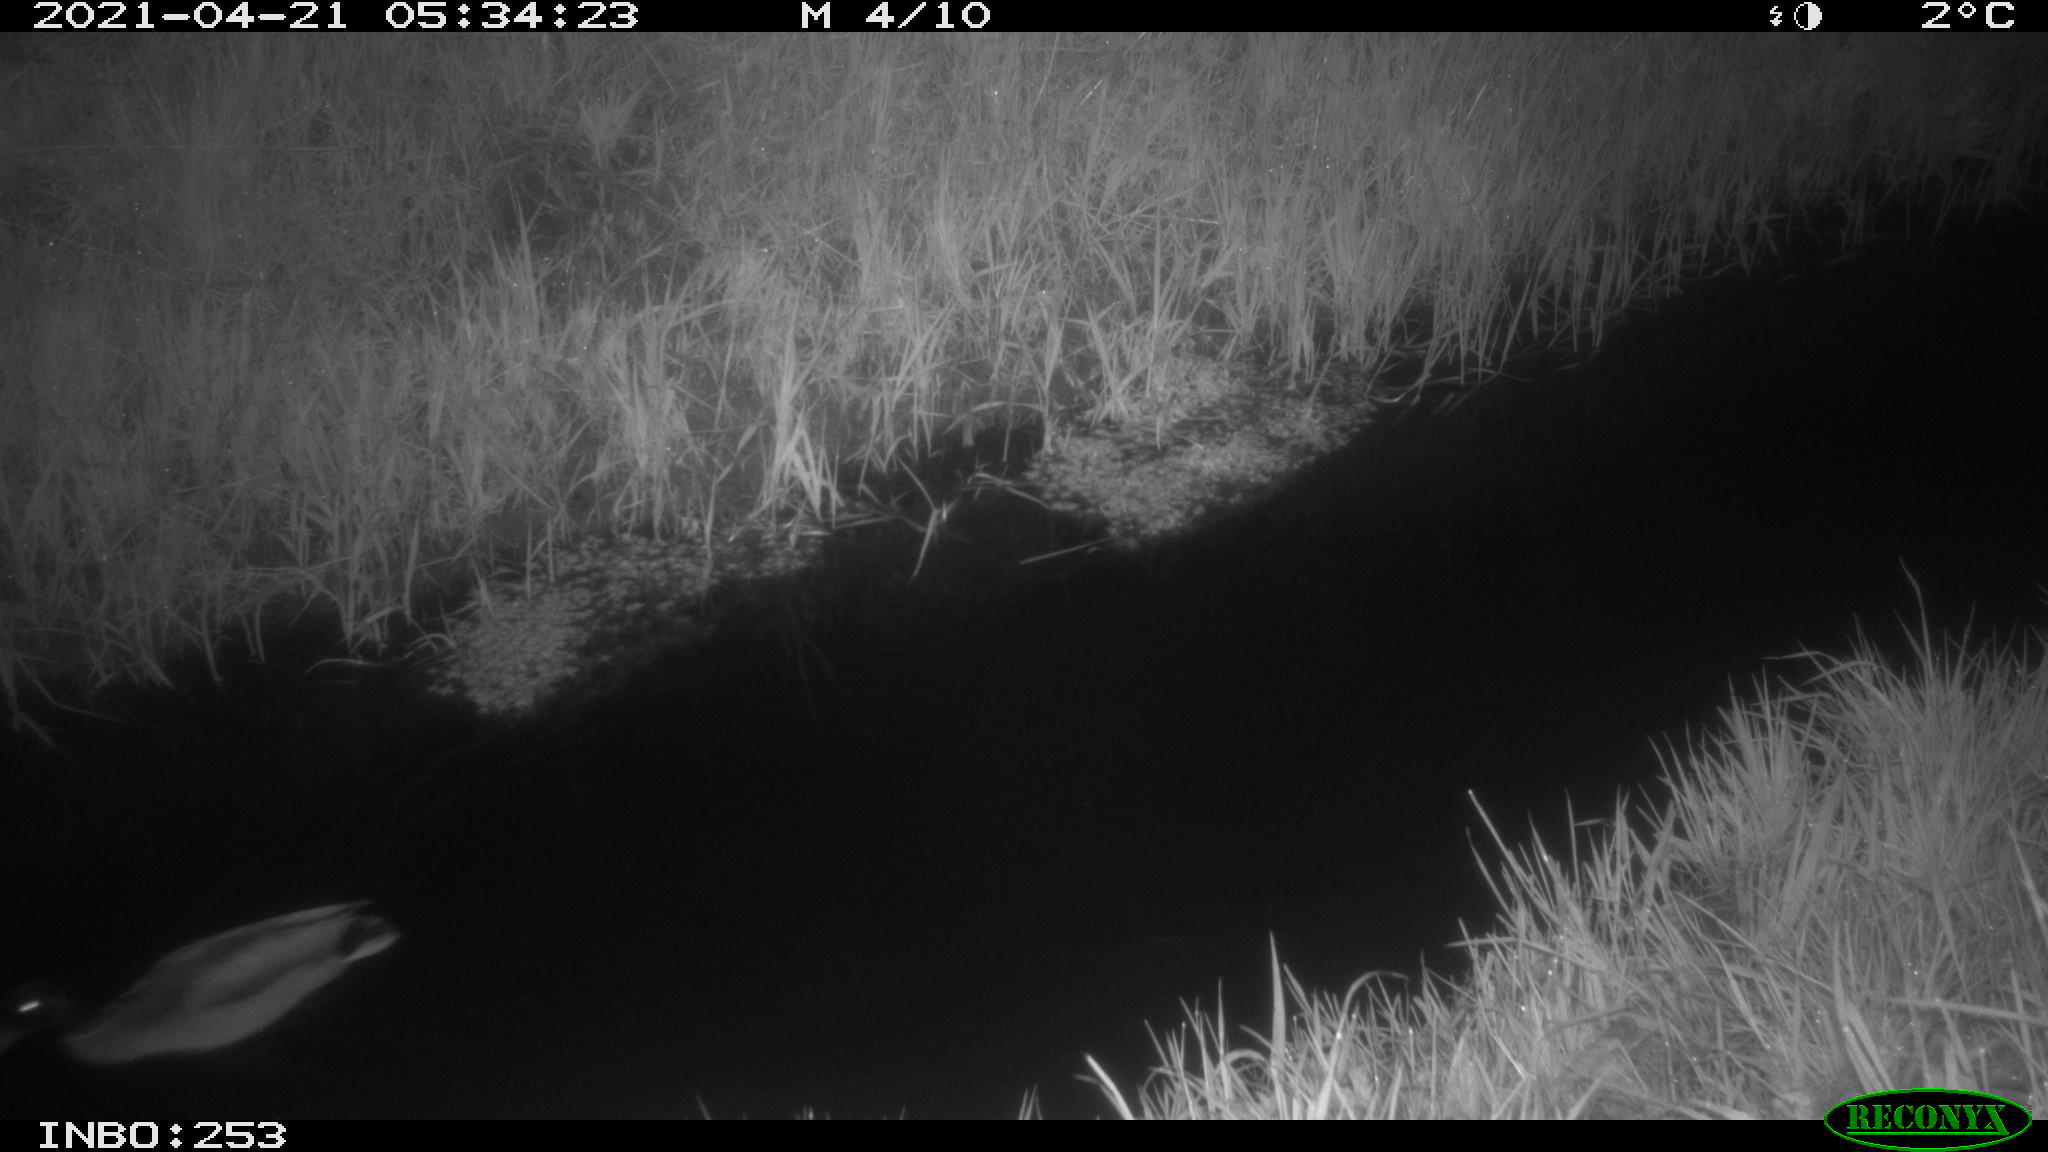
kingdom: Animalia
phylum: Chordata
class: Aves
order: Anseriformes
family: Anatidae
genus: Anas
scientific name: Anas platyrhynchos
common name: Mallard
